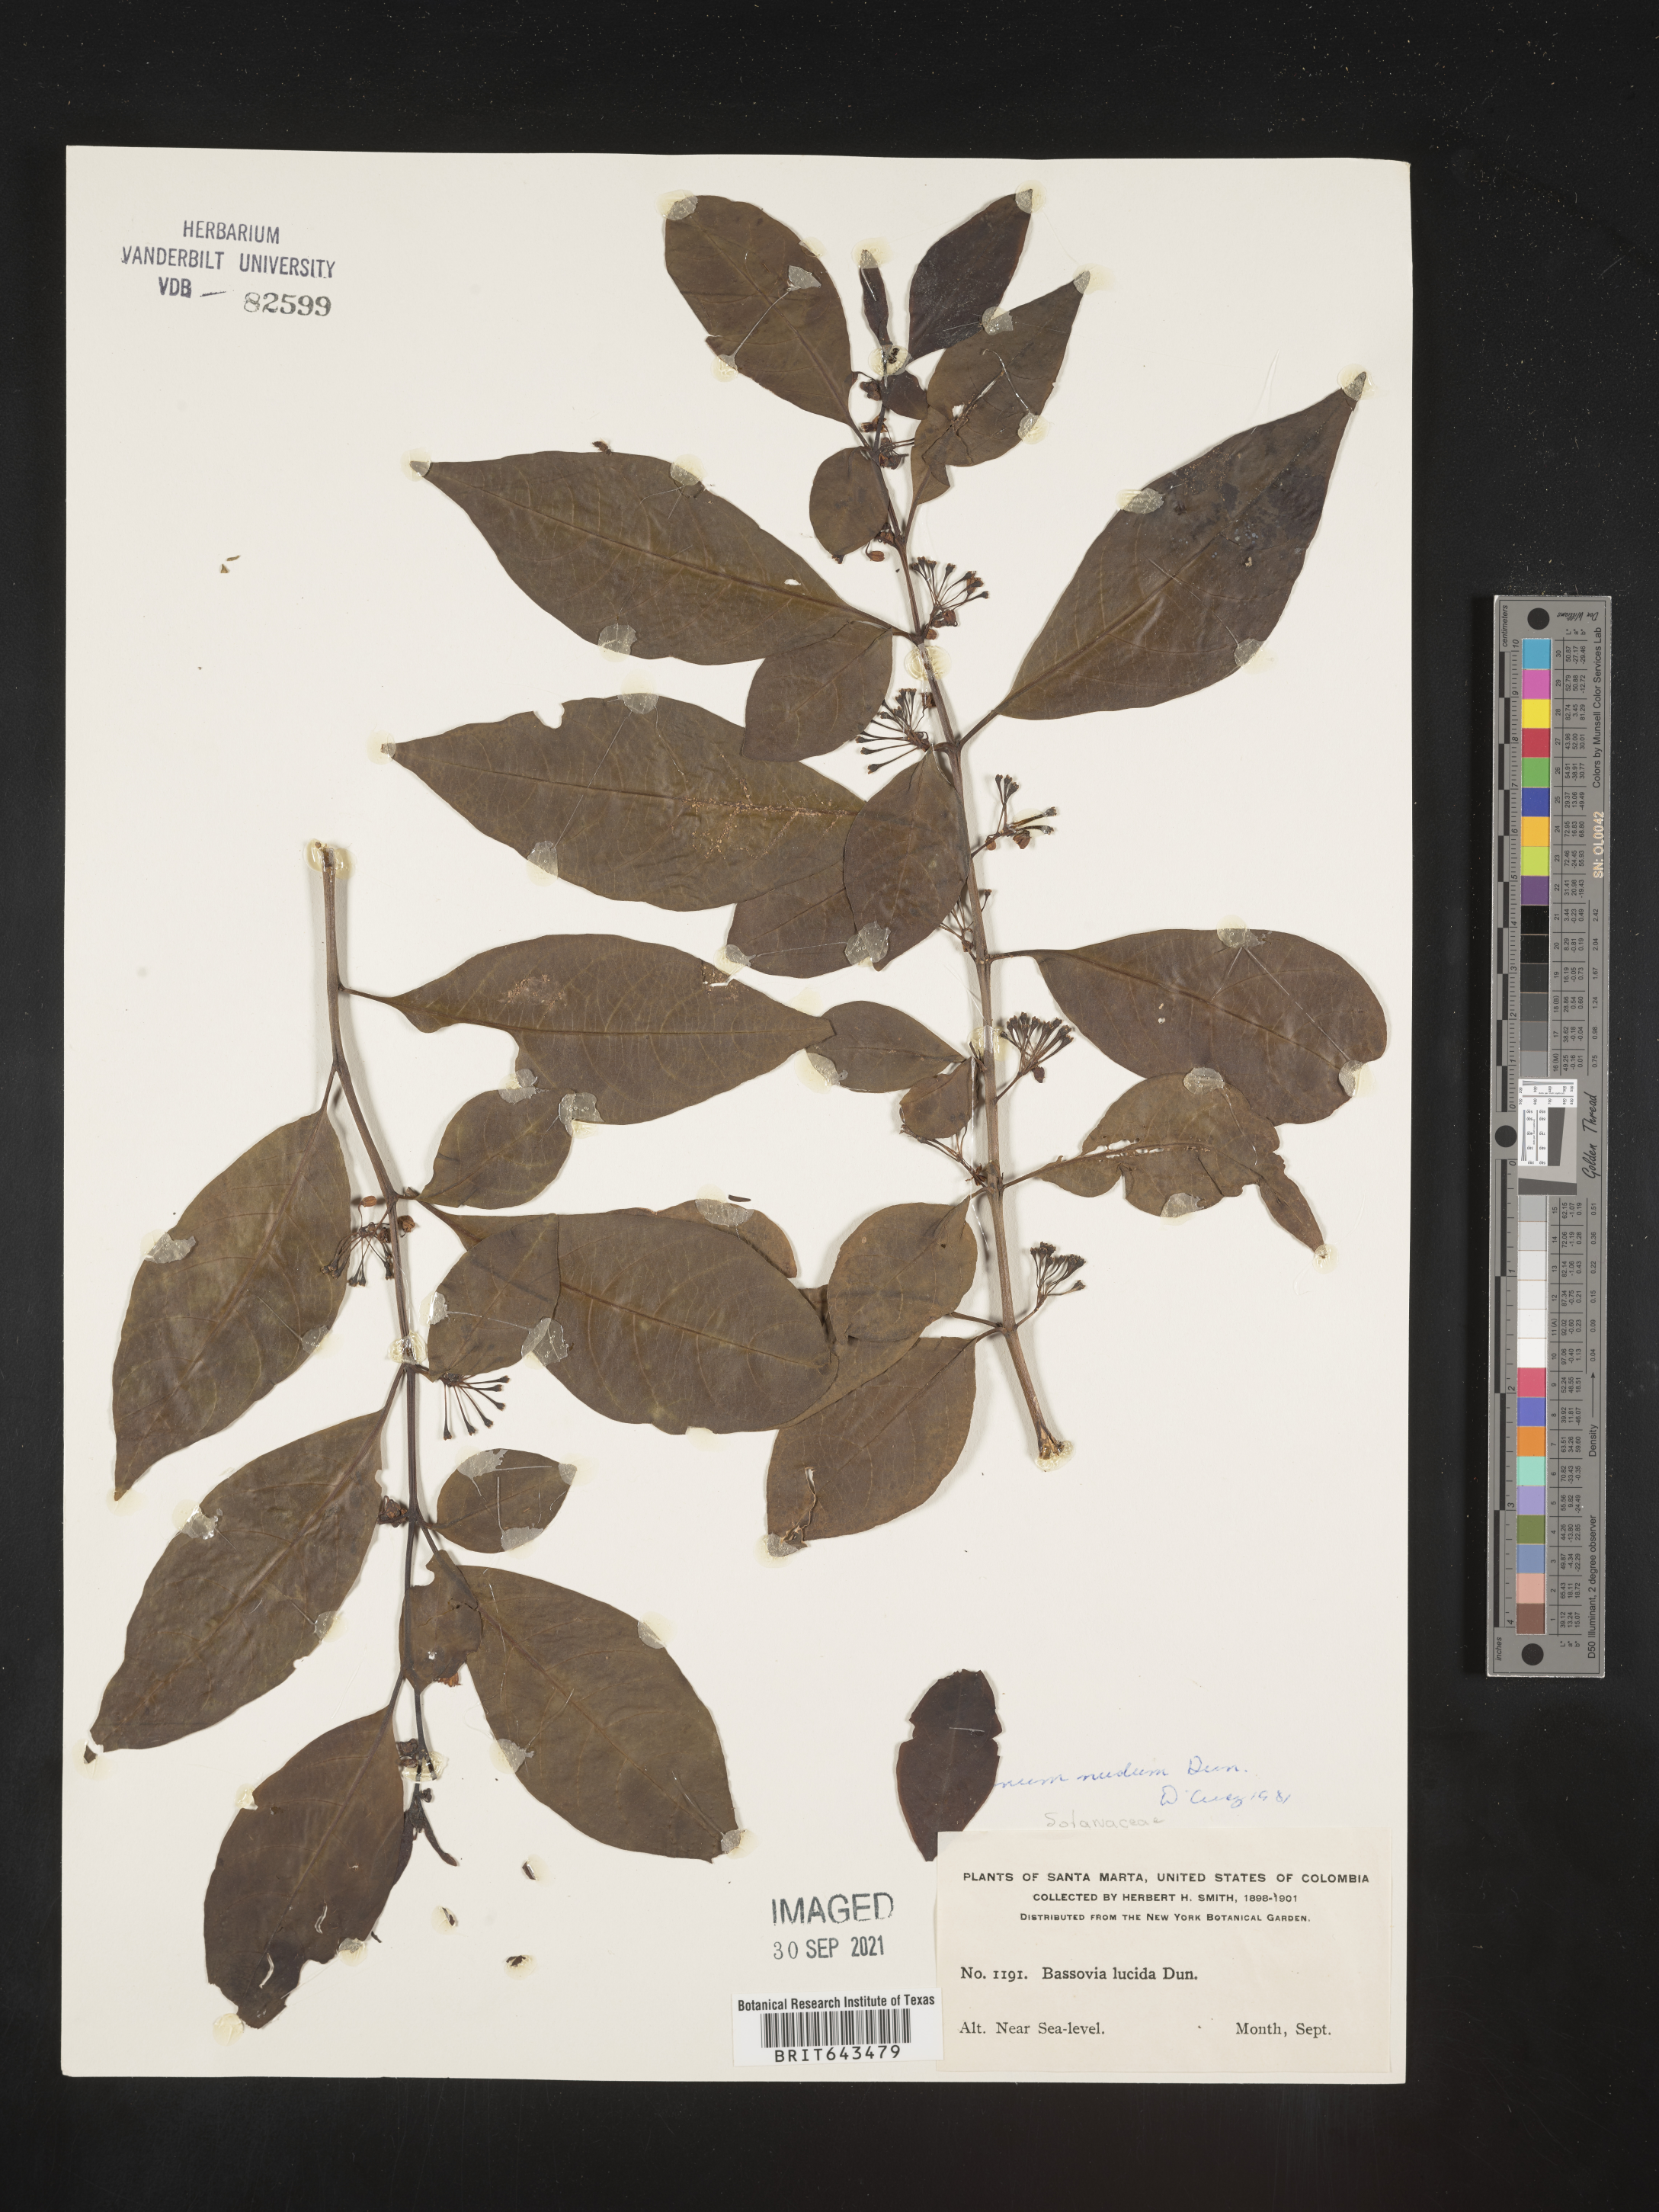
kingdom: Plantae
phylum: Tracheophyta
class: Magnoliopsida
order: Solanales
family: Solanaceae
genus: Solanum
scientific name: Solanum
